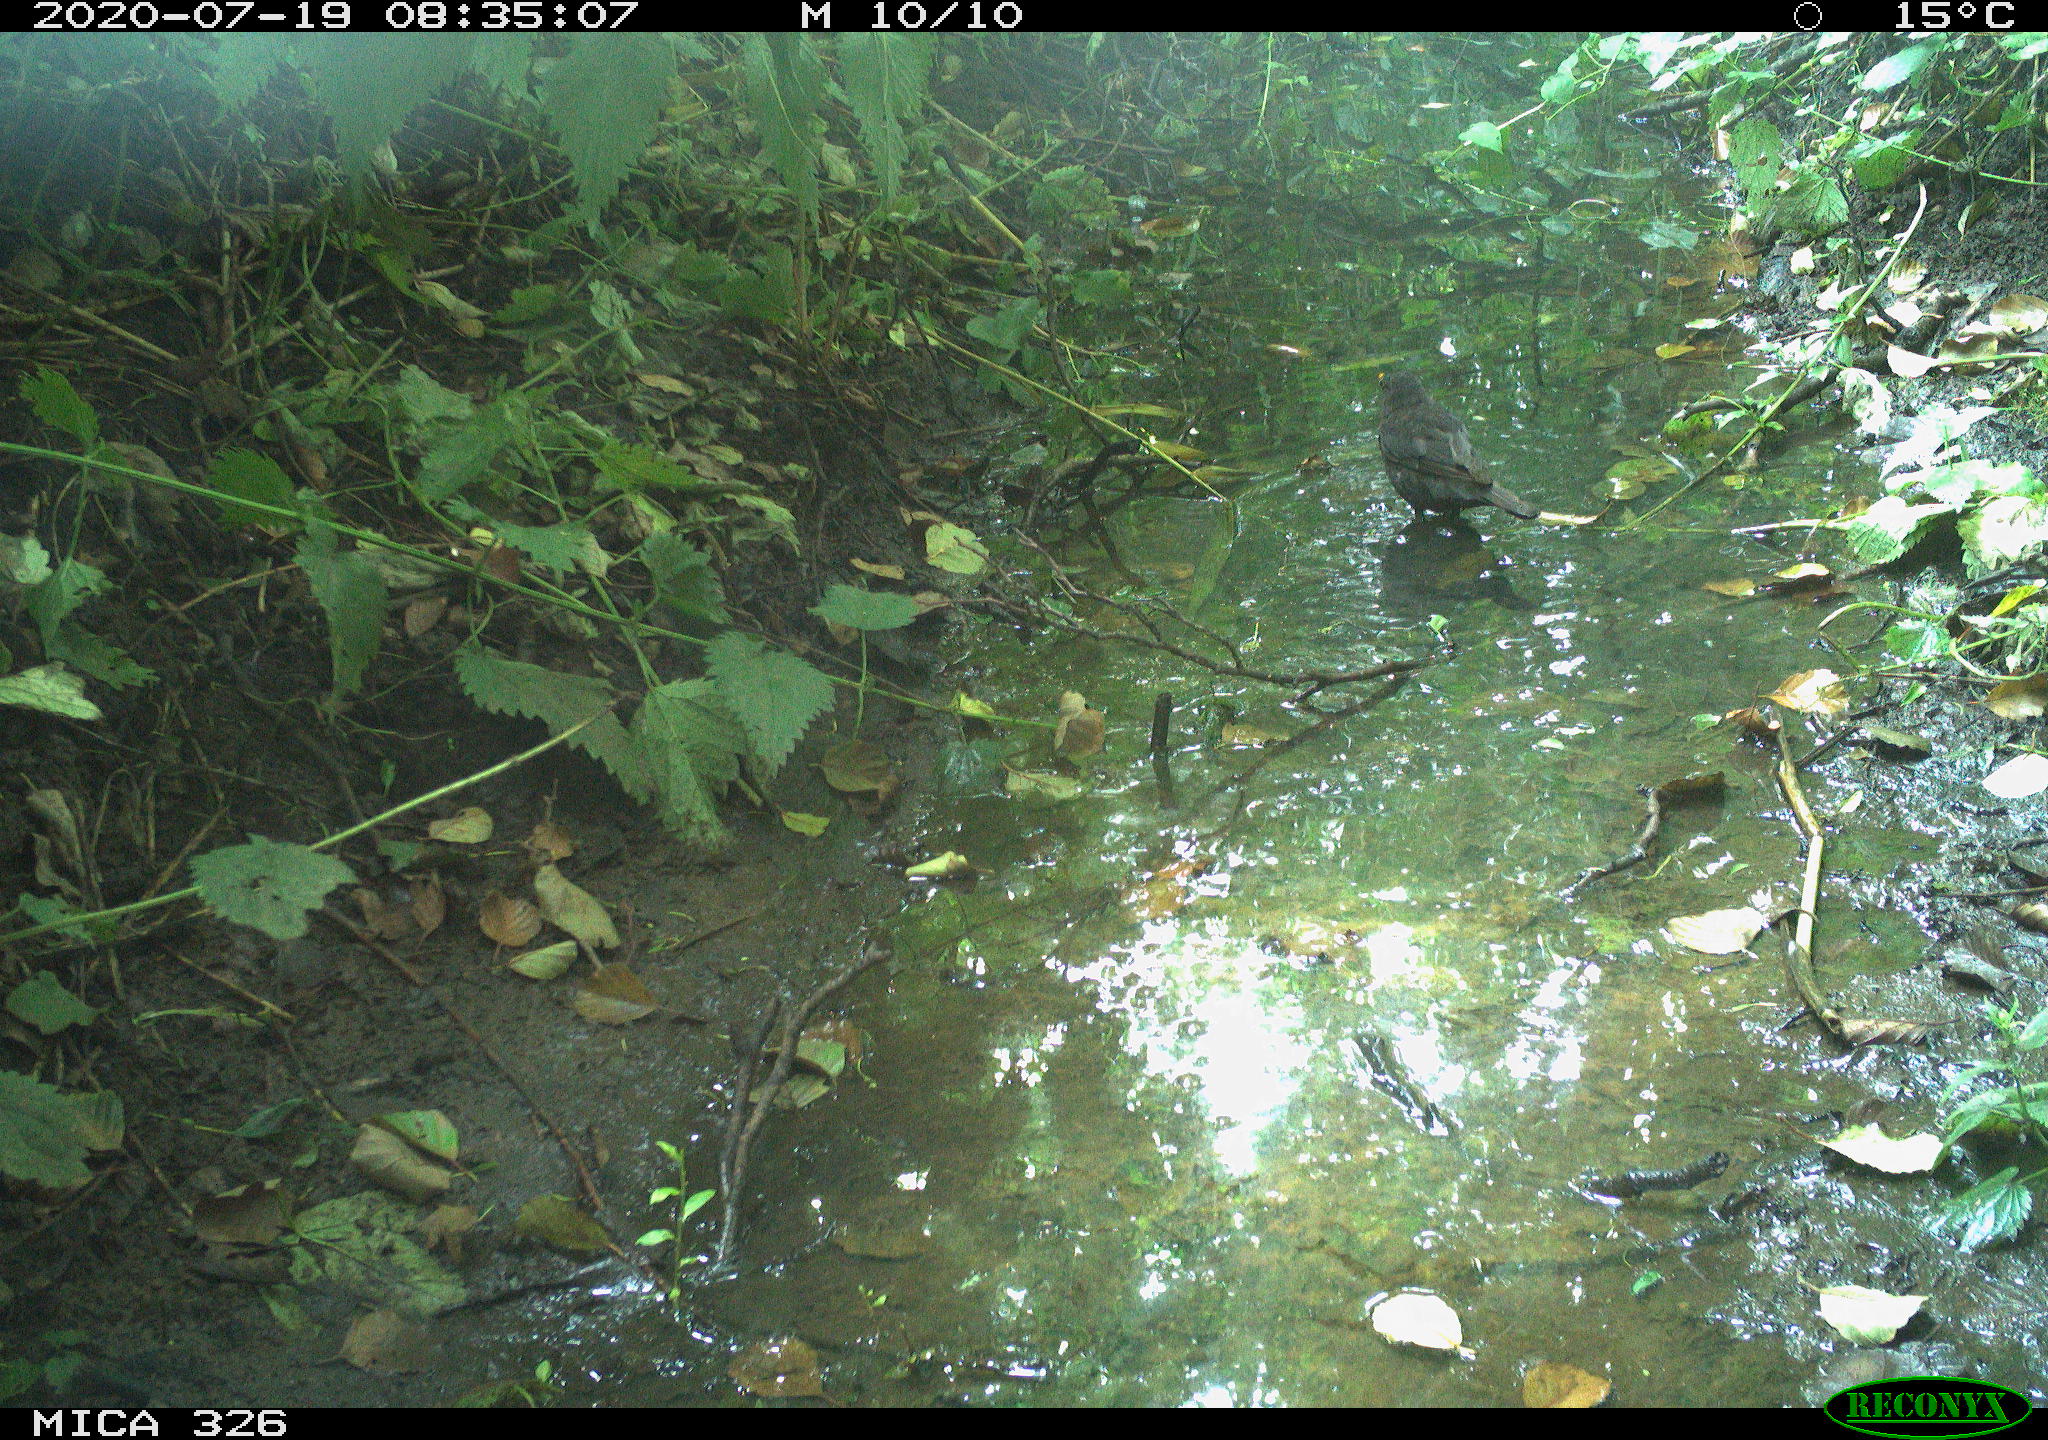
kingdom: Animalia
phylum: Chordata
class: Aves
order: Passeriformes
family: Turdidae
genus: Turdus
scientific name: Turdus merula
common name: Common blackbird
